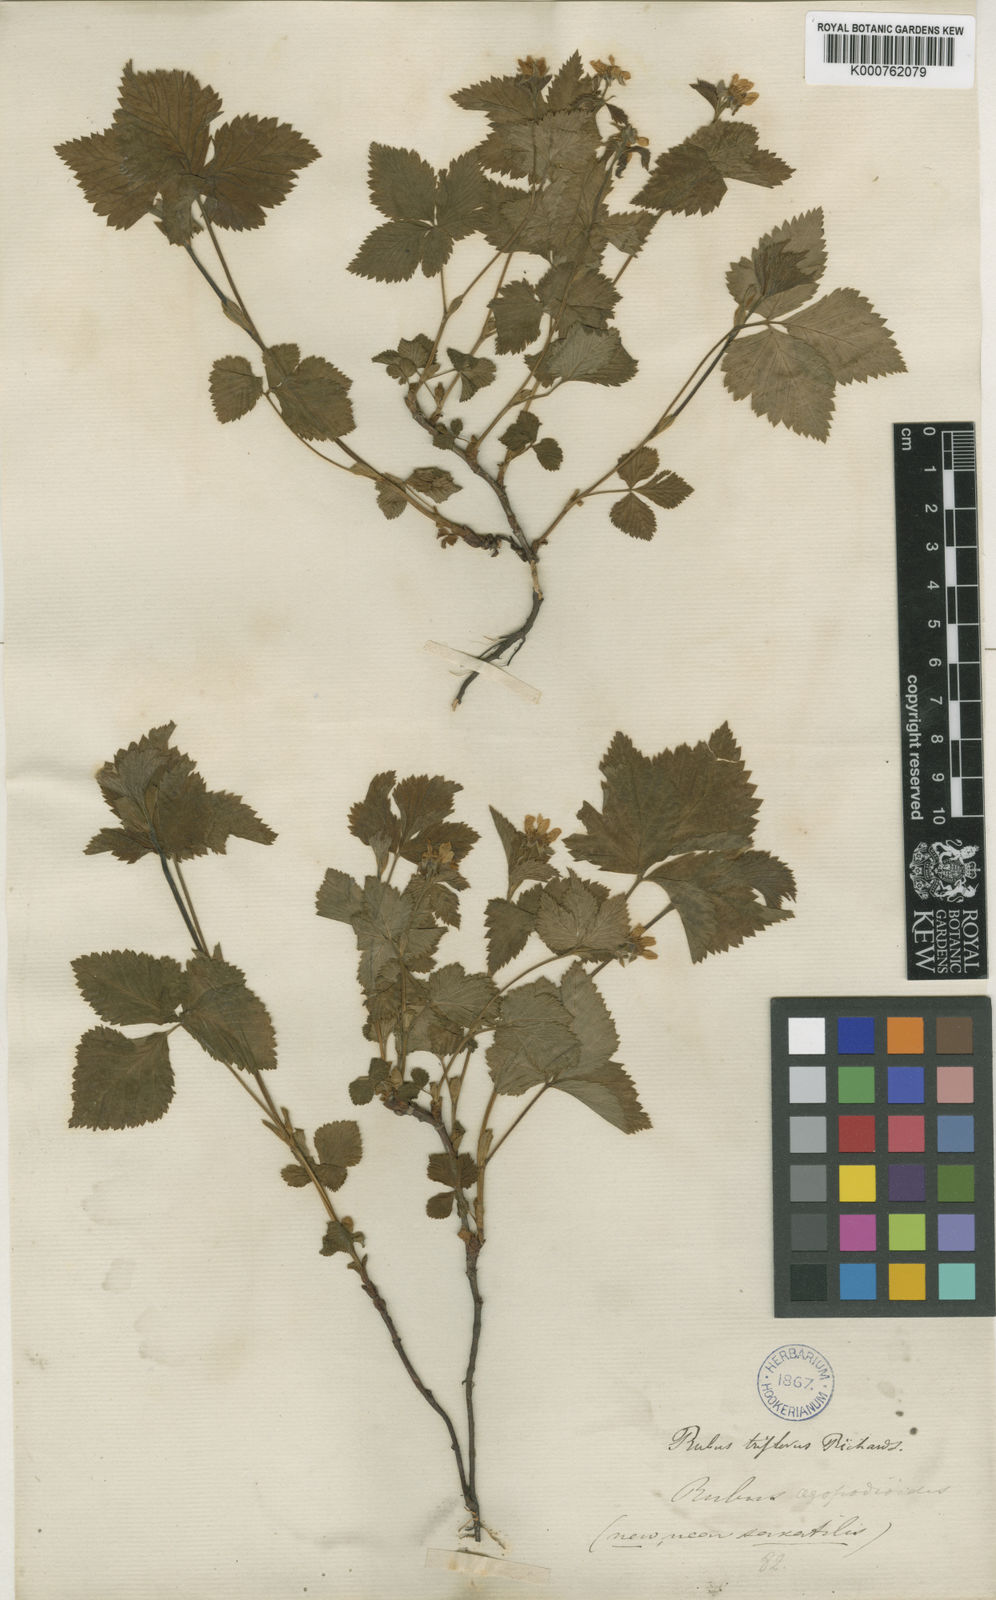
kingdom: Plantae
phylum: Tracheophyta
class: Magnoliopsida
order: Rosales
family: Rosaceae
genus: Rubus
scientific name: Rubus
